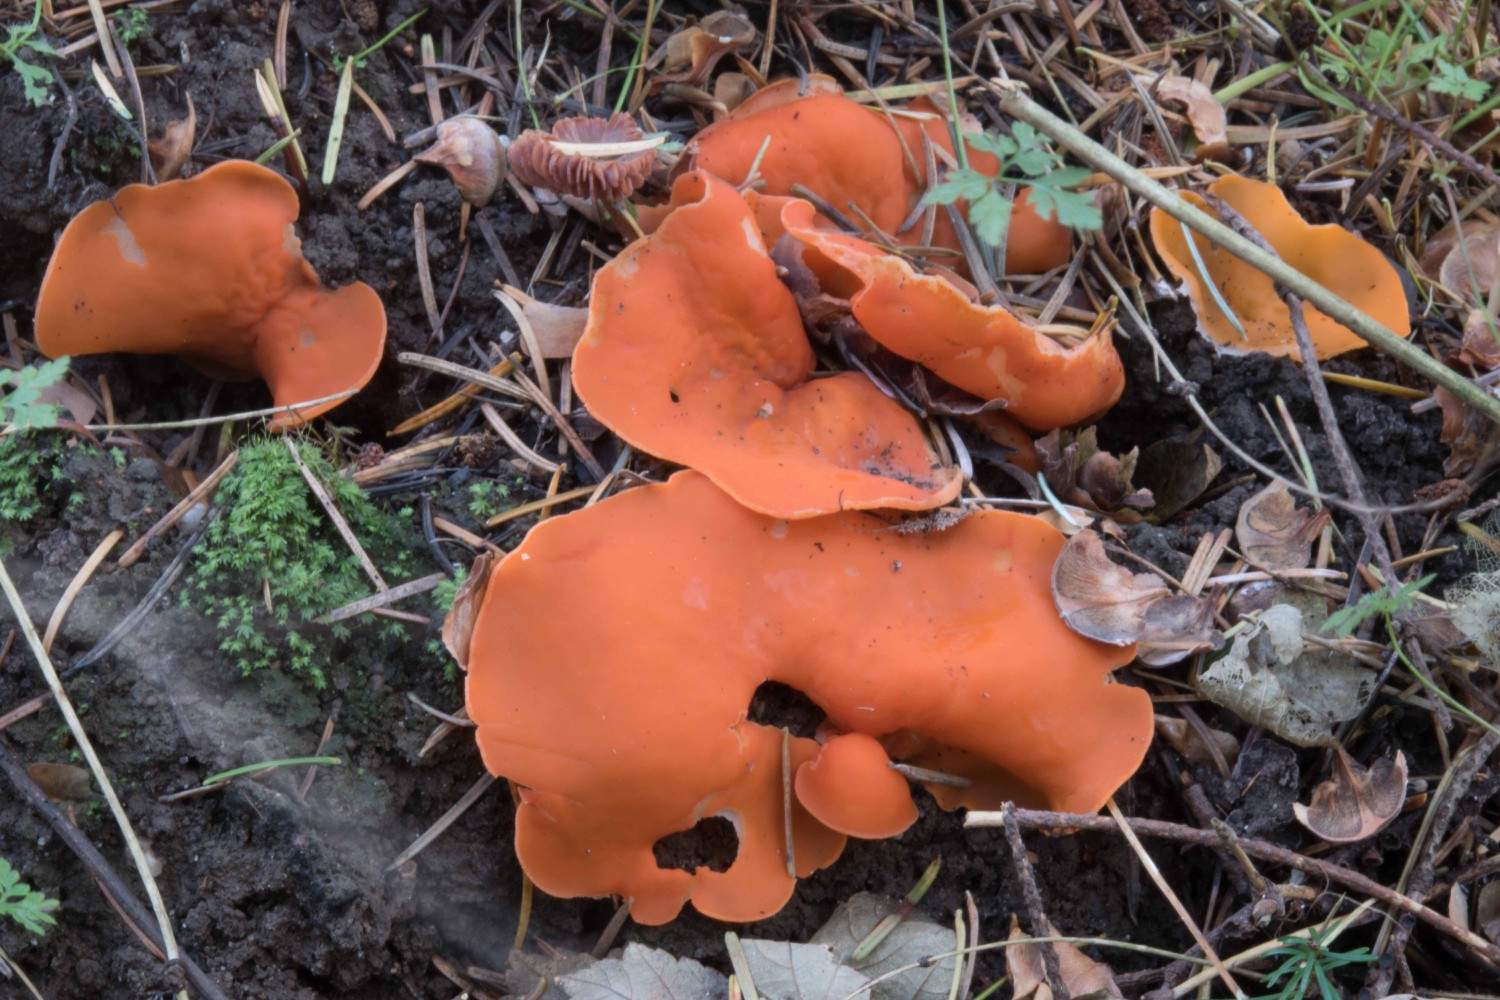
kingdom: Fungi
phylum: Ascomycota
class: Pezizomycetes
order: Pezizales
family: Pyronemataceae
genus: Aleuria
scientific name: Aleuria aurantia
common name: almindelig orangebæger
